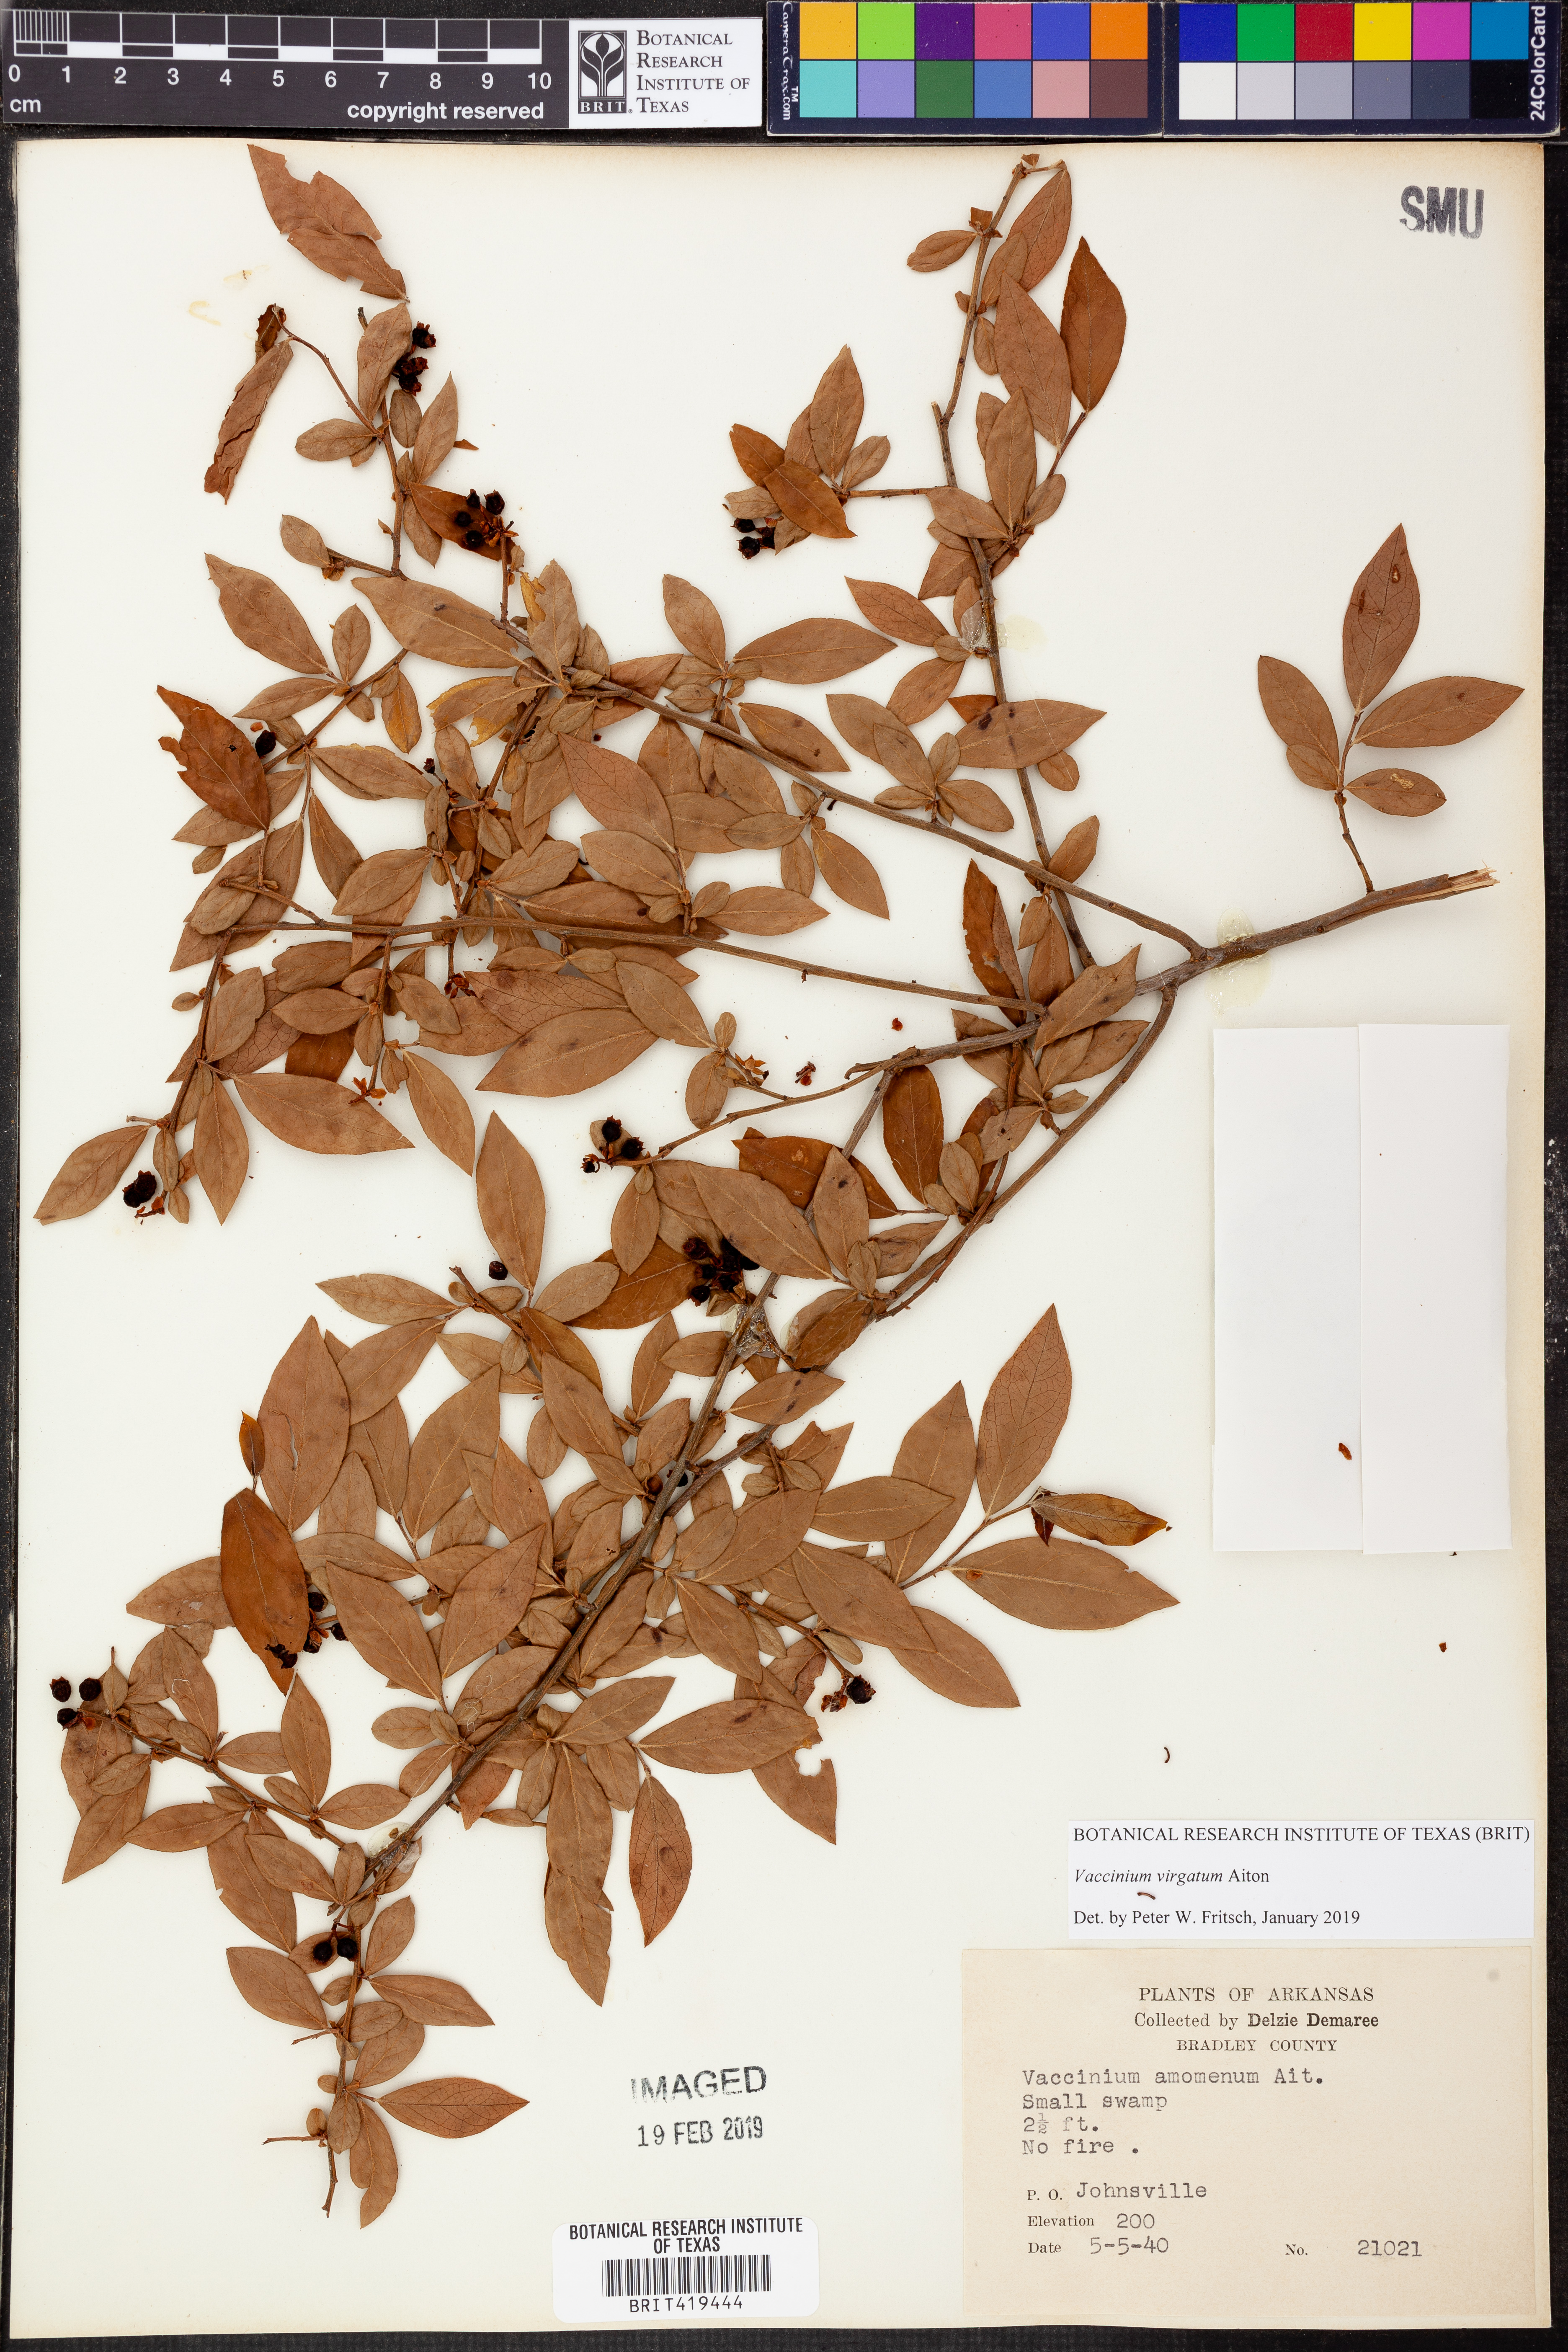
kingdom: Plantae
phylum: Tracheophyta
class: Magnoliopsida
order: Ericales
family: Ericaceae
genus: Vaccinium
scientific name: Vaccinium corymbosum
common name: Blueberry
